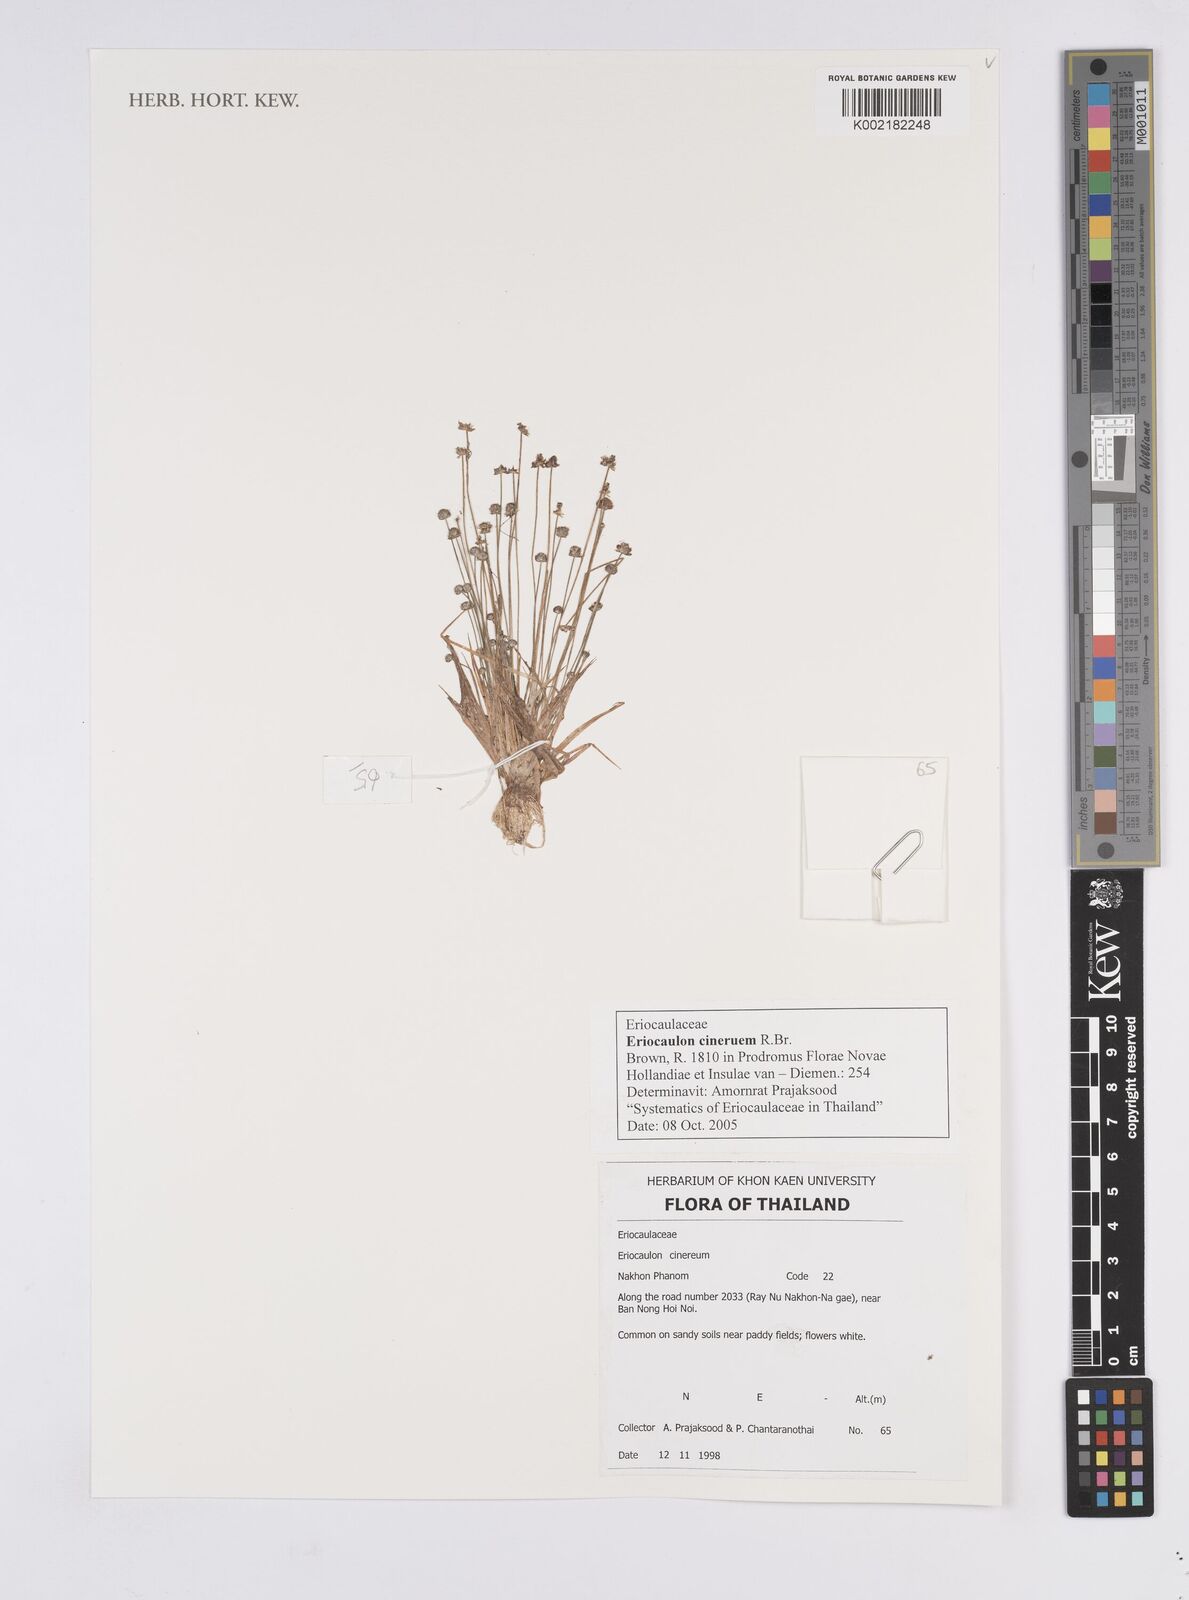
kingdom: Plantae
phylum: Tracheophyta
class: Liliopsida
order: Poales
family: Eriocaulaceae
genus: Eriocaulon
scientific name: Eriocaulon cinereum
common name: Ashy pipewort
